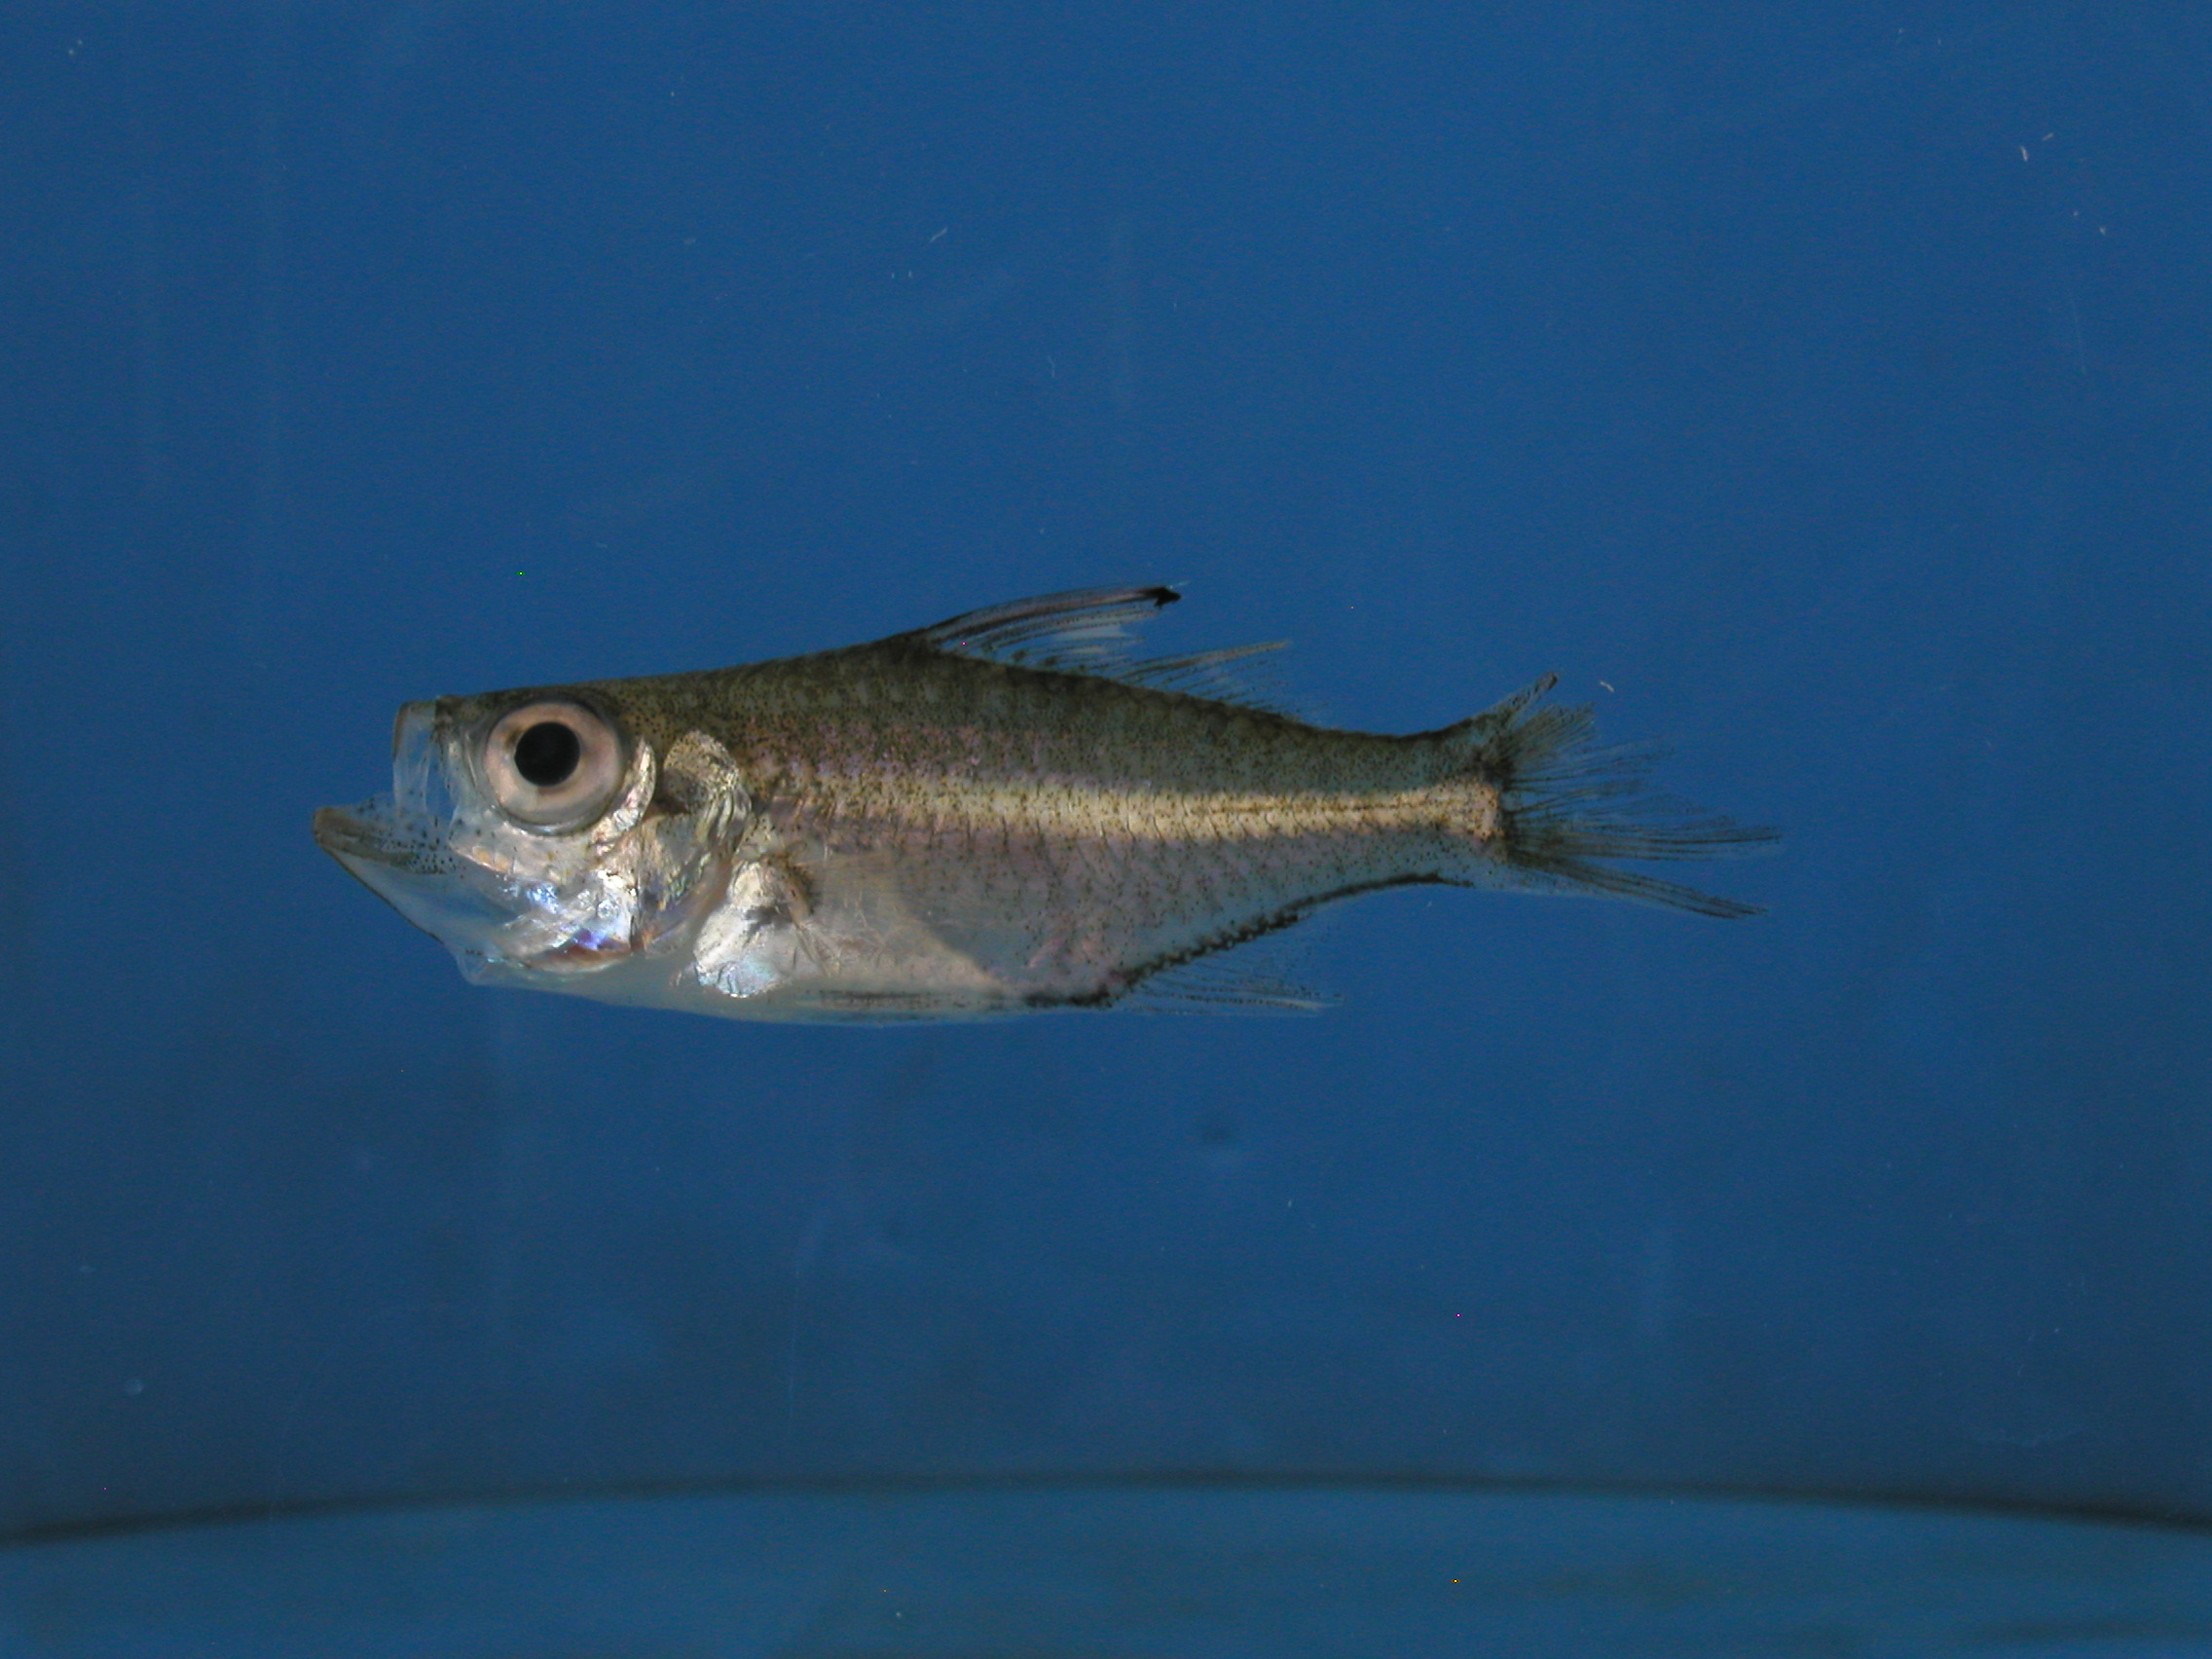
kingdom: Animalia
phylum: Chordata
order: Perciformes
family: Ambassidae
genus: Ambassis
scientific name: Ambassis dussumieri
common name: Malabar glassy perchlet
